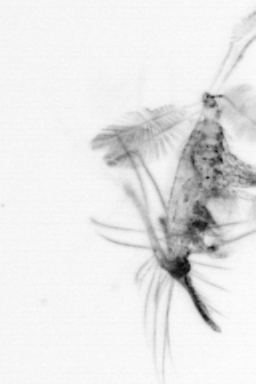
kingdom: Animalia
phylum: Arthropoda
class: Copepoda
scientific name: Copepoda
